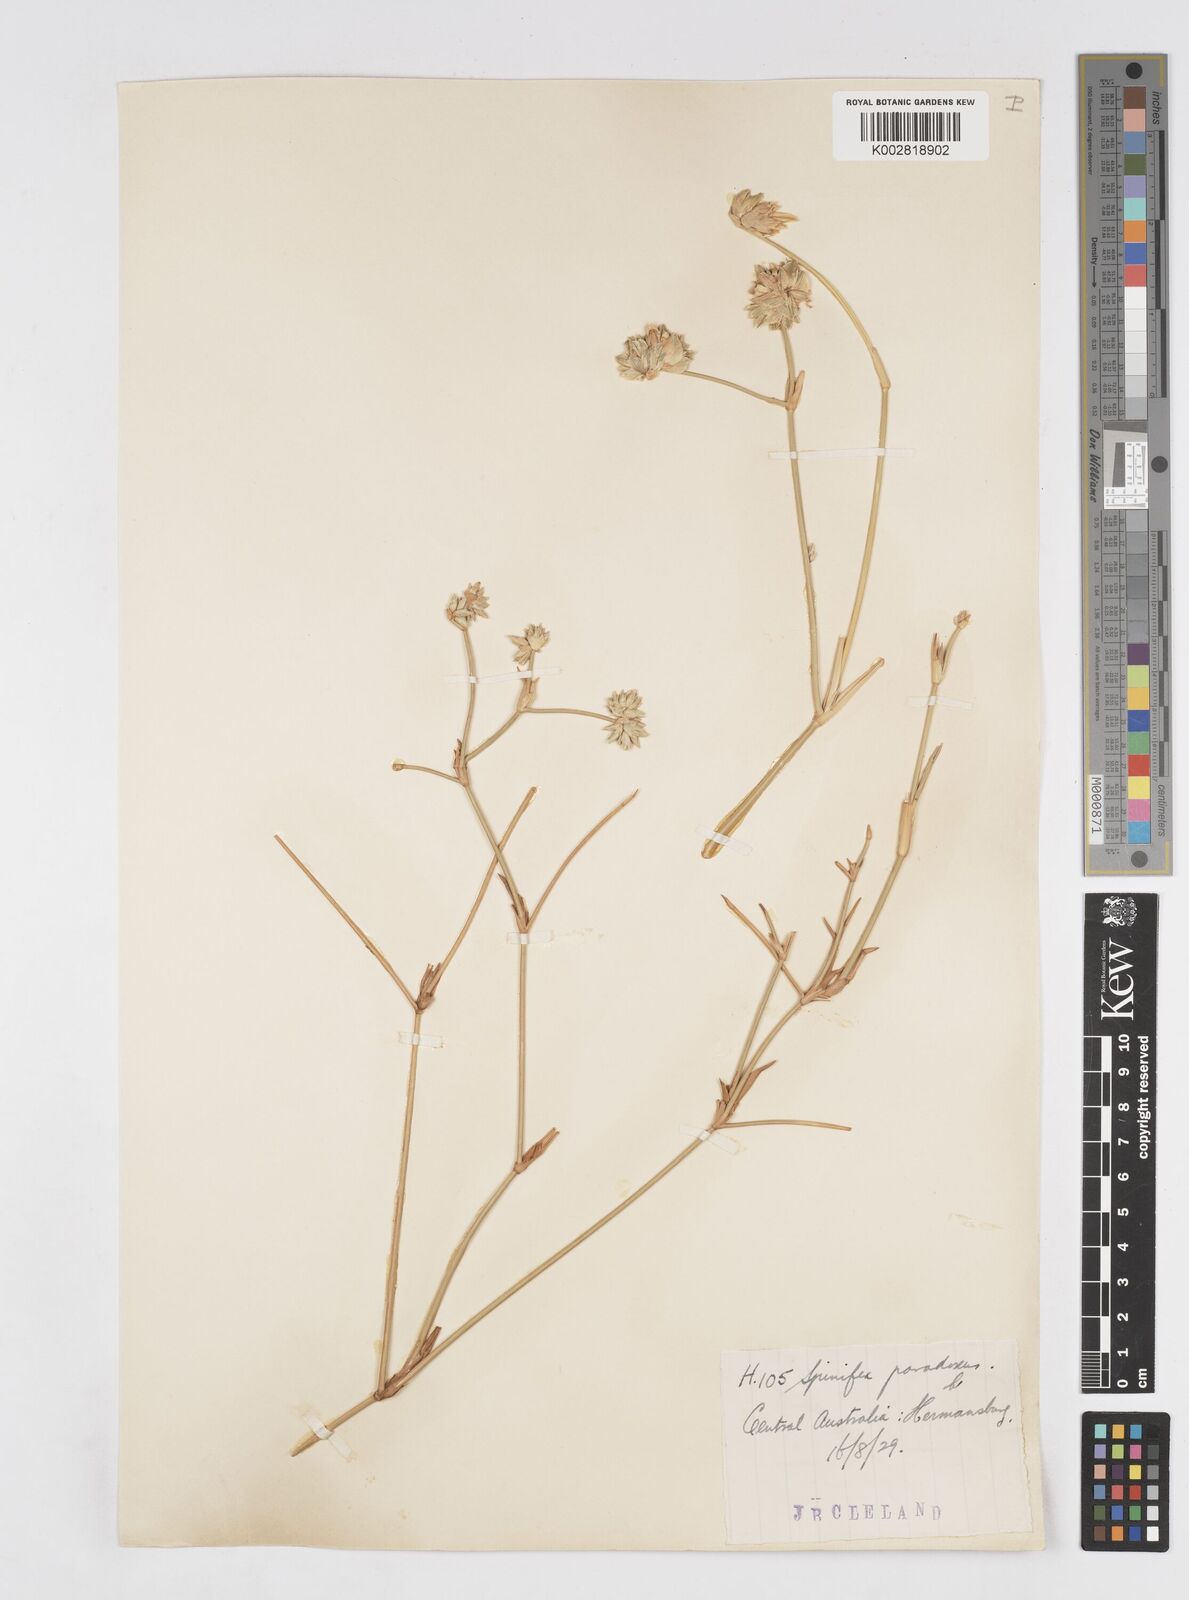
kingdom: Plantae
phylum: Tracheophyta
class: Liliopsida
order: Poales
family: Poaceae
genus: Zygochloa
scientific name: Zygochloa paradoxa
